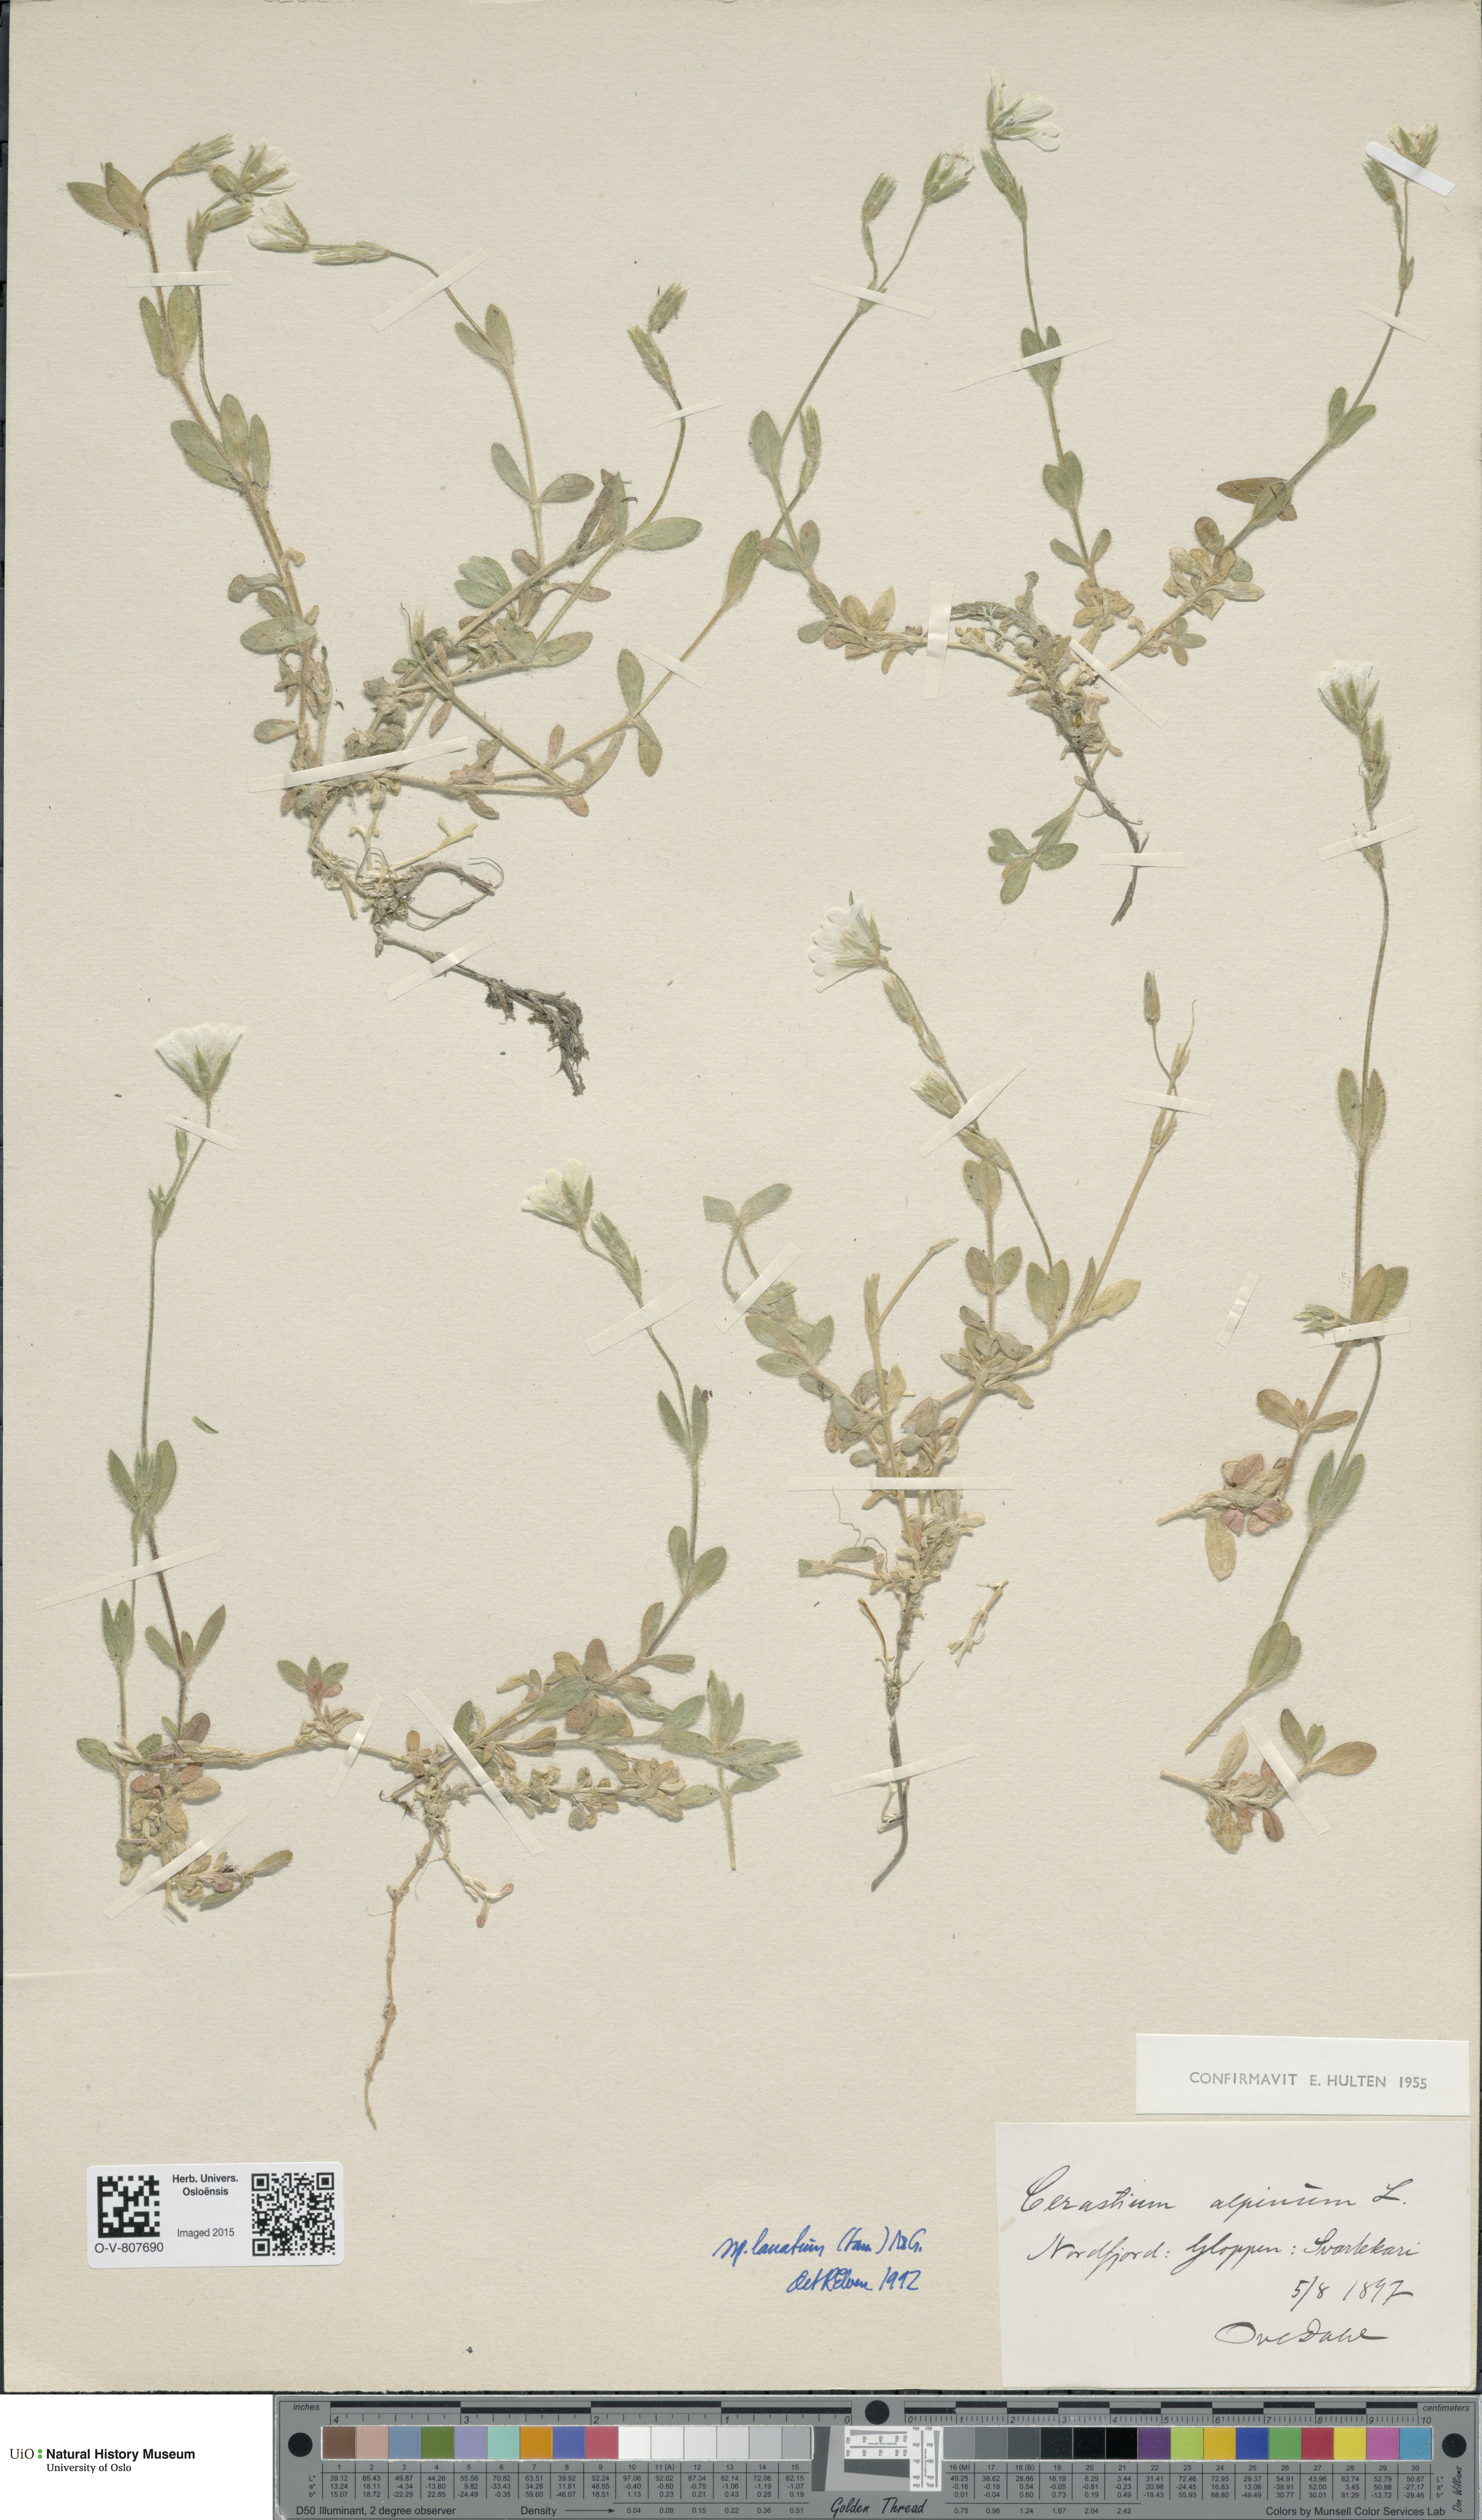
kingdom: Plantae
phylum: Tracheophyta
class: Magnoliopsida
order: Caryophyllales
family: Caryophyllaceae
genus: Cerastium
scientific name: Cerastium alpinum
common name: Alpine mouse-ear
